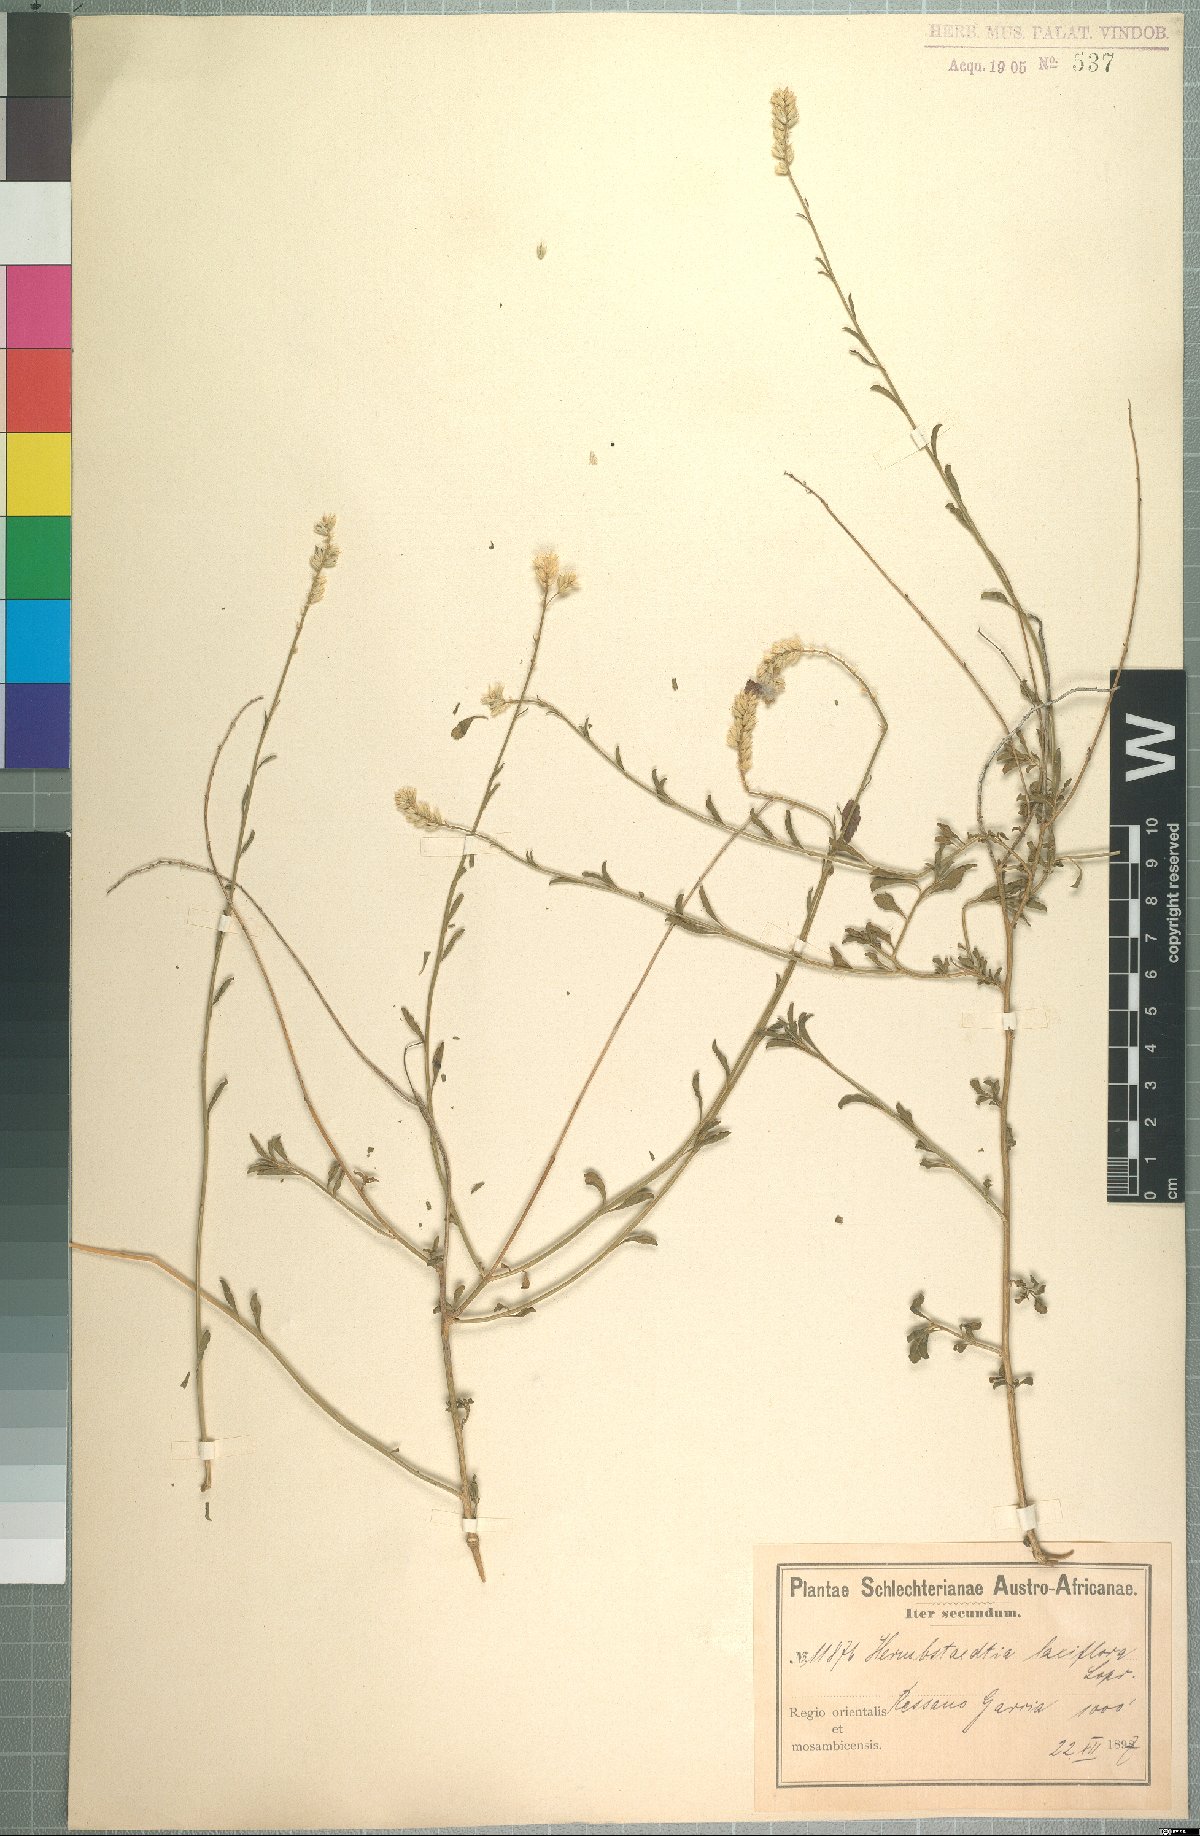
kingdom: Plantae
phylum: Tracheophyta
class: Magnoliopsida
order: Caryophyllales
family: Amaranthaceae
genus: Hermbstaedtia
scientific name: Hermbstaedtia odorata
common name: Guineaflower
